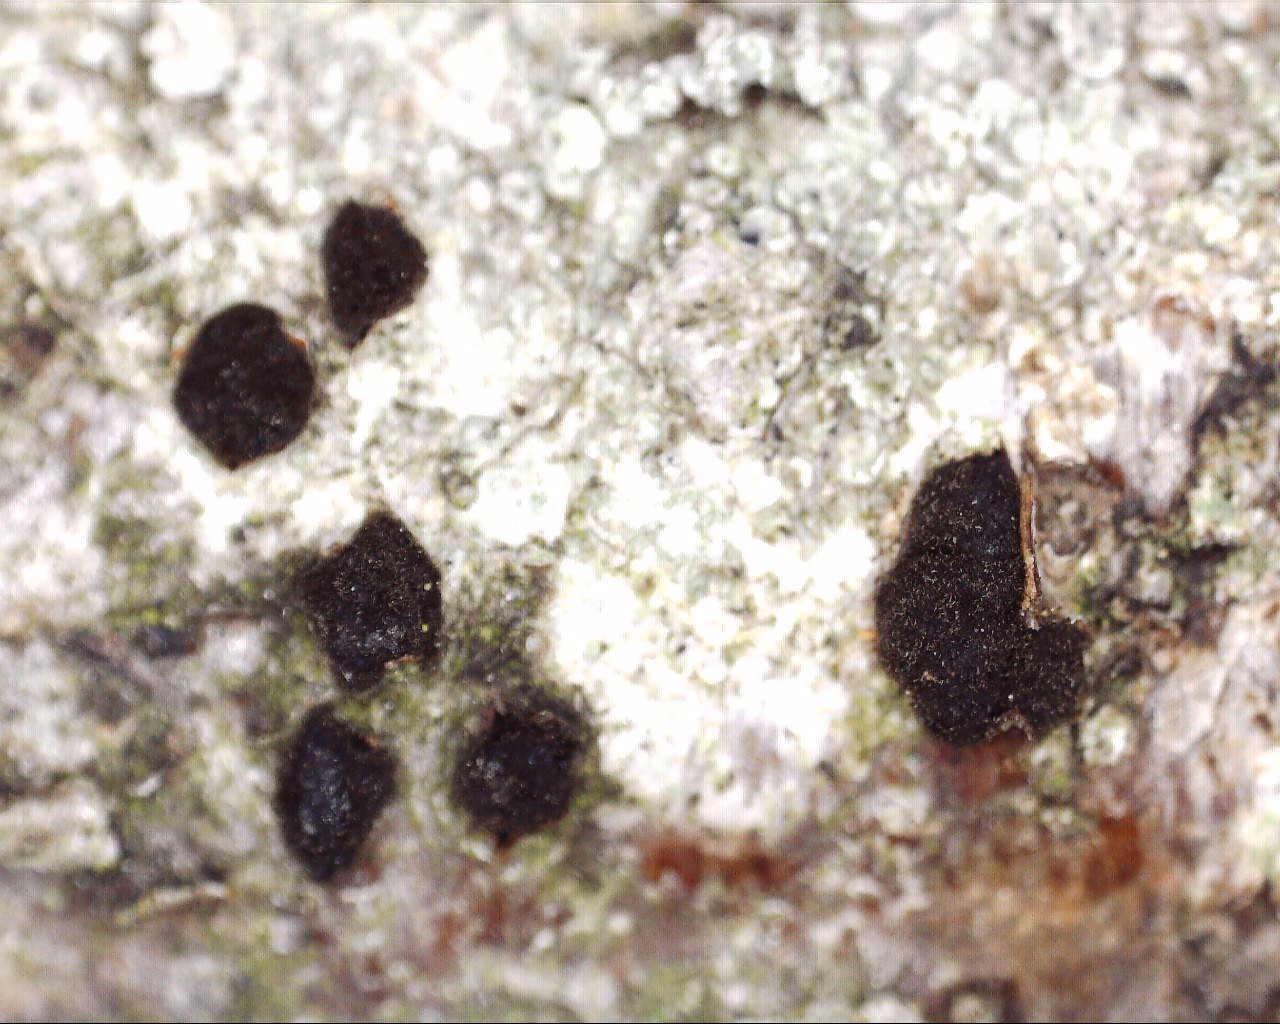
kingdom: Fungi
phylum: Ascomycota
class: Dothideomycetes
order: Pleosporales
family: Massarinaceae
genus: Helminthosporium
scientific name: Helminthosporium oligosporum
